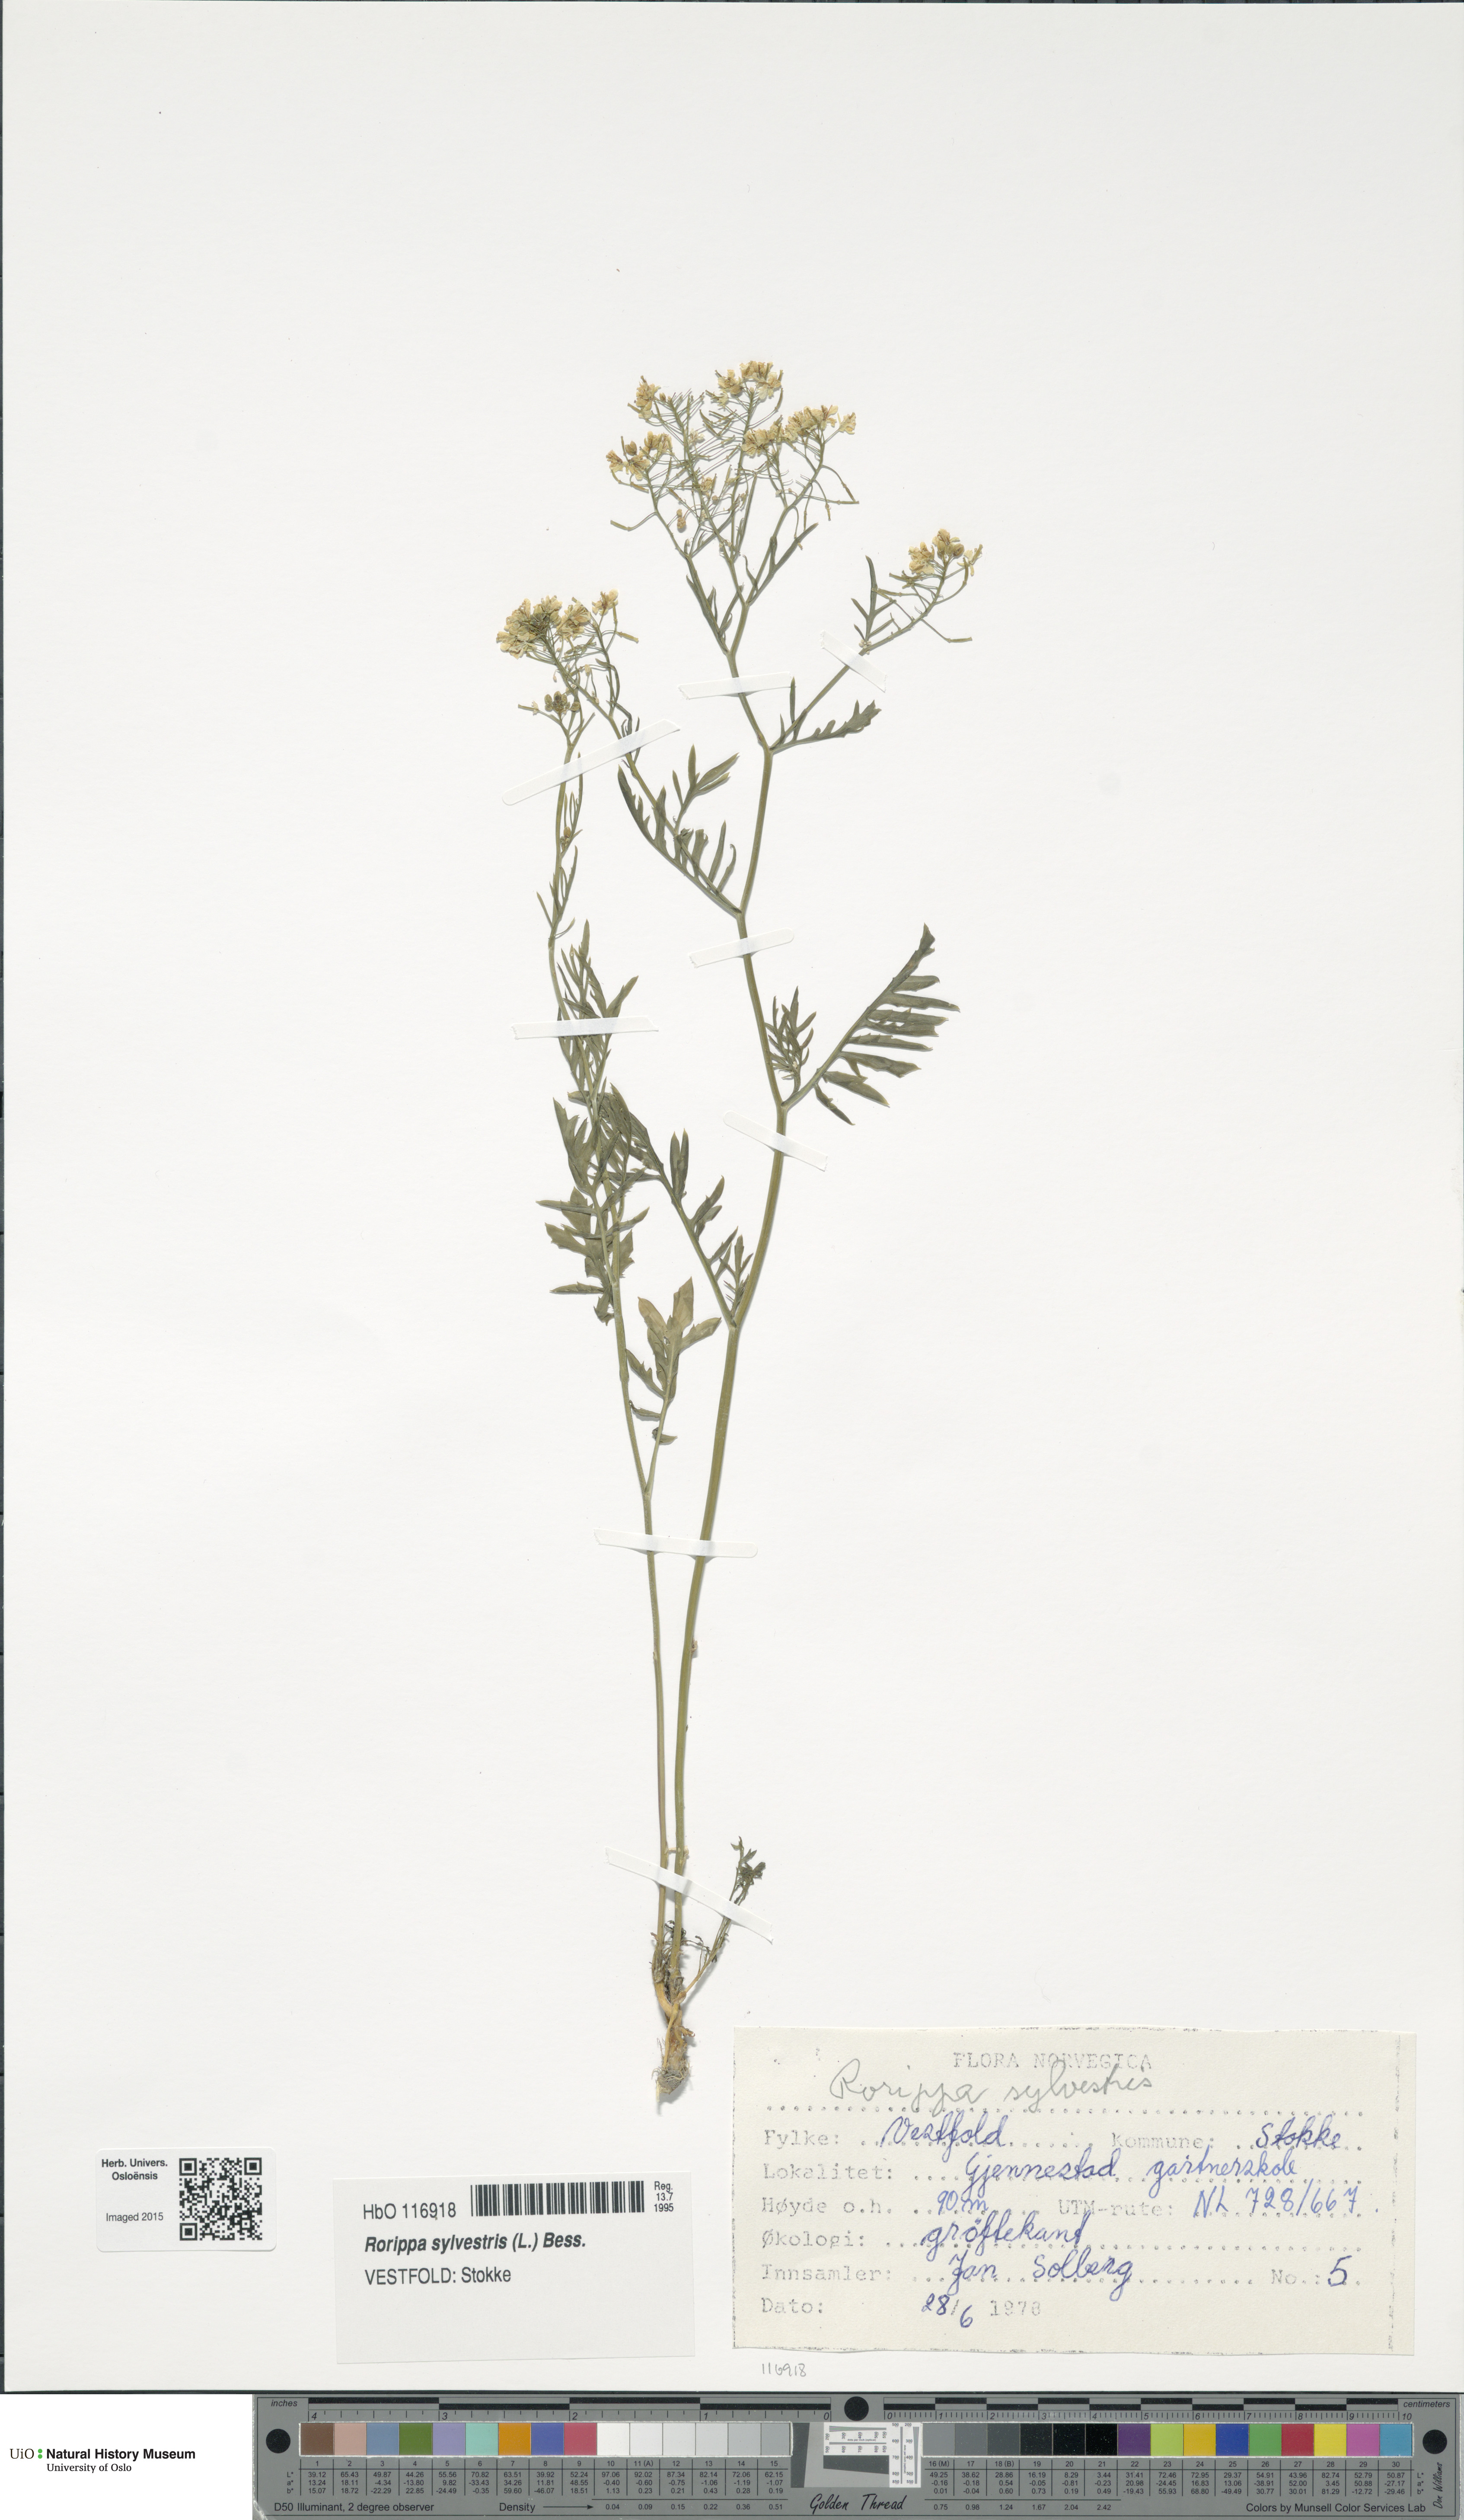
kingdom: Plantae
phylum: Tracheophyta
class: Magnoliopsida
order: Brassicales
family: Brassicaceae
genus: Rorippa
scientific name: Rorippa sylvestris
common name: Creeping yellowcress
